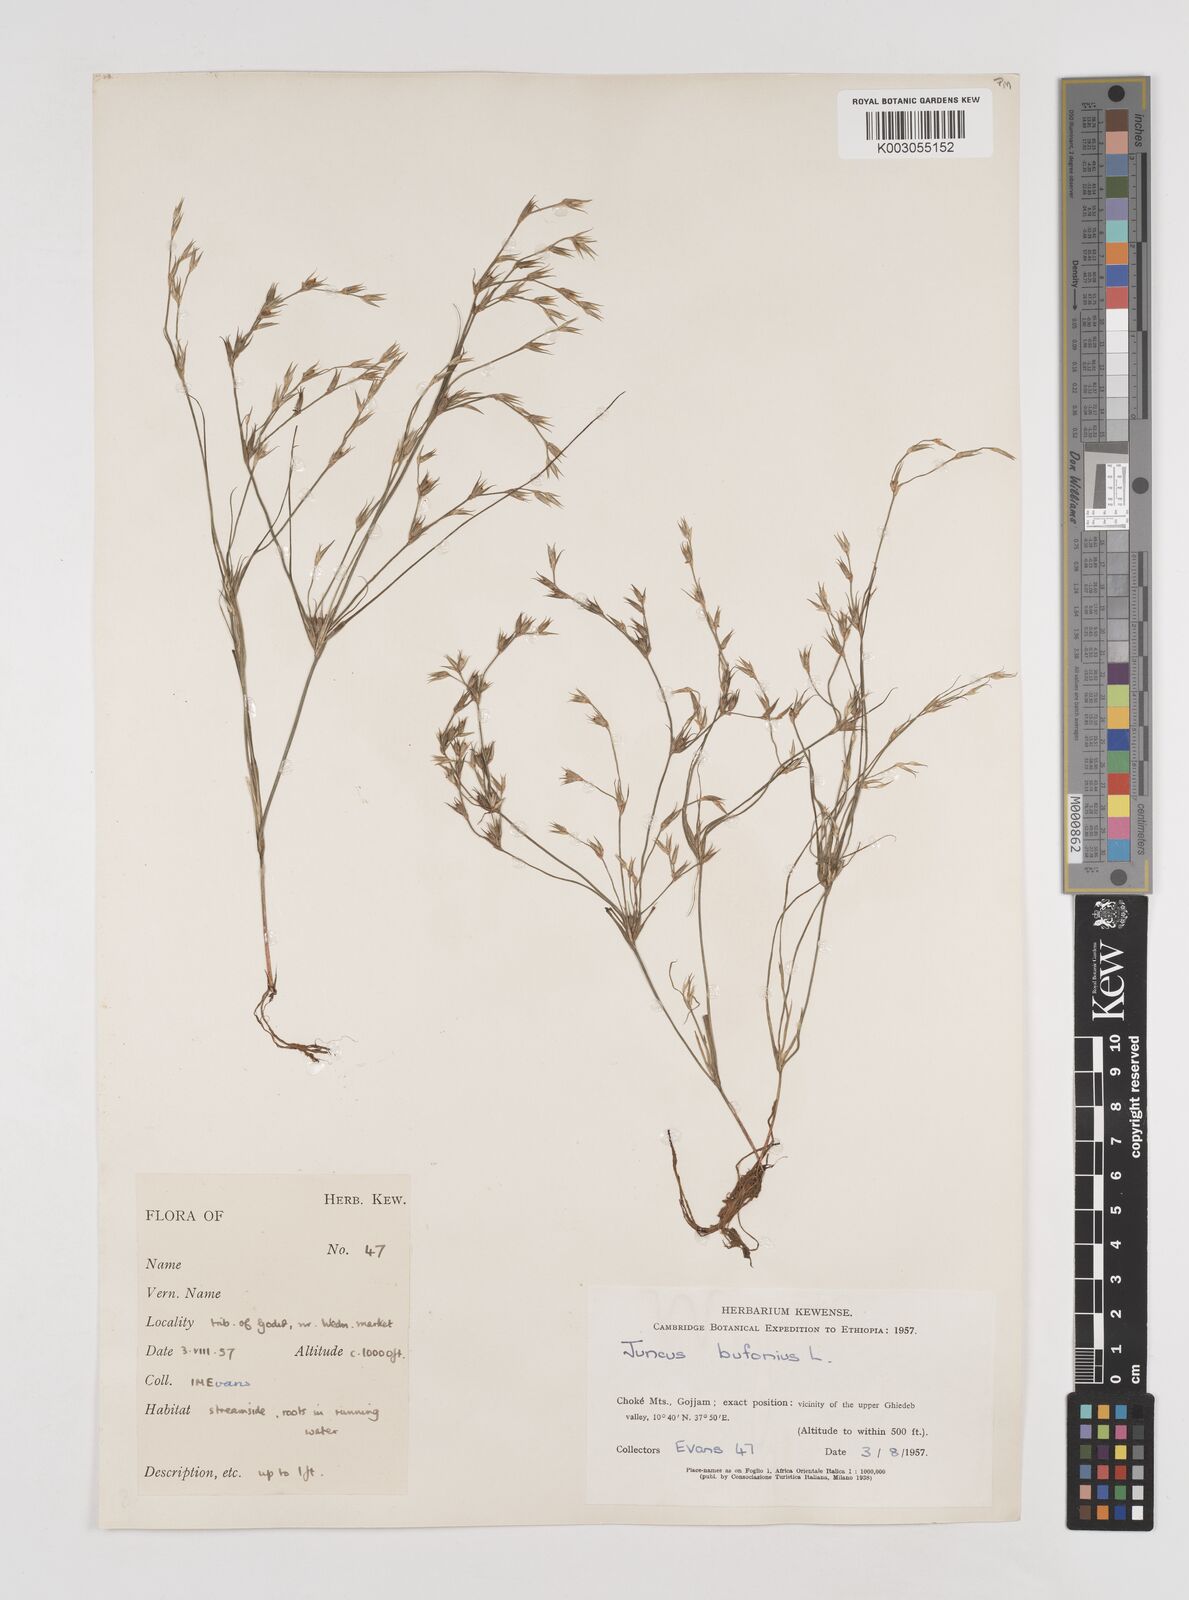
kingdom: Plantae
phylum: Tracheophyta
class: Liliopsida
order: Poales
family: Juncaceae
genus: Juncus
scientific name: Juncus bufonius
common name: Toad rush
